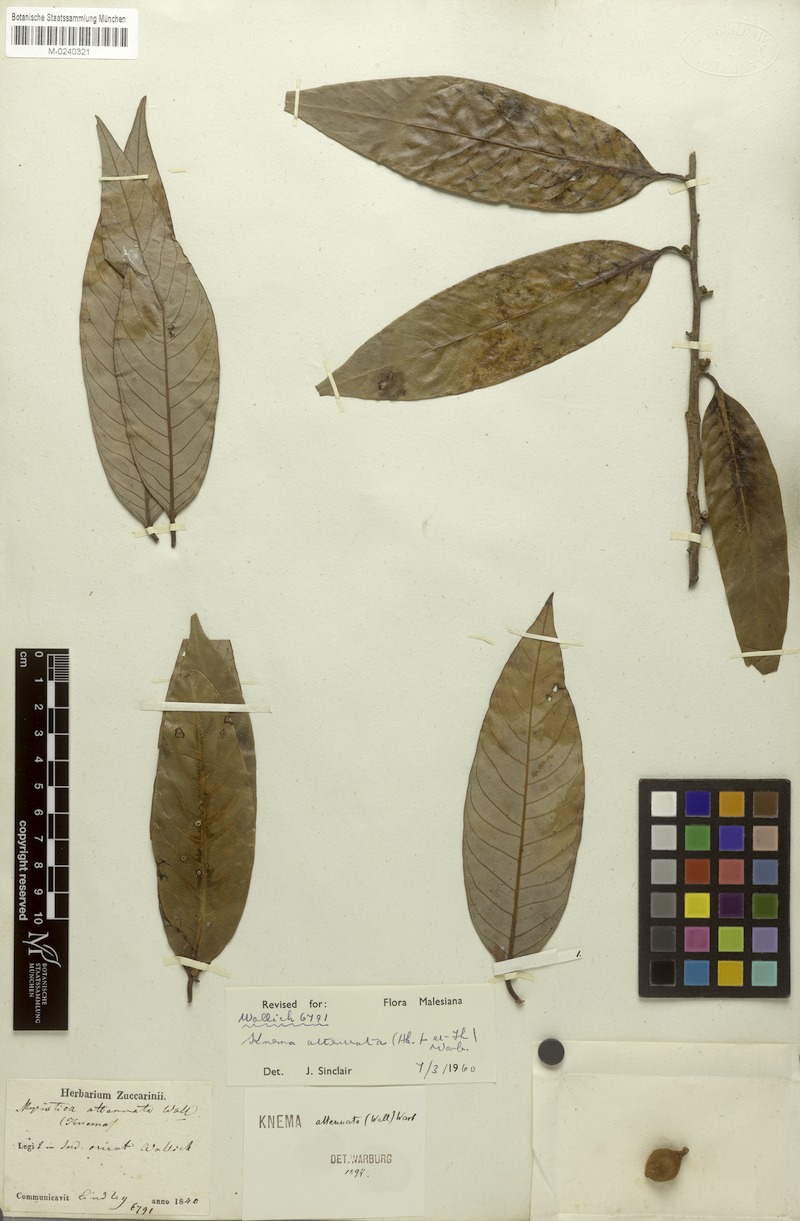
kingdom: Plantae
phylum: Tracheophyta
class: Magnoliopsida
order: Magnoliales
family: Myristicaceae
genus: Knema
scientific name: Knema attenuata
